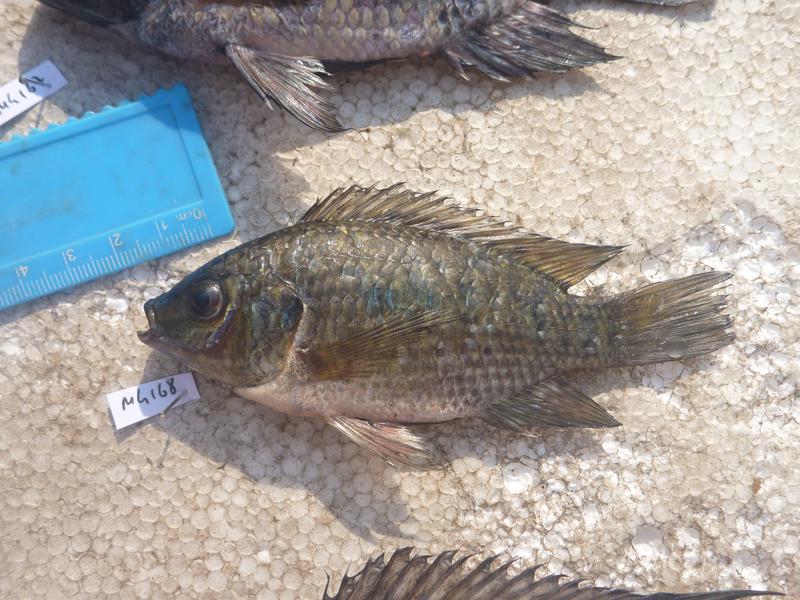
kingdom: Animalia
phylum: Chordata
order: Perciformes
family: Cichlidae
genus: Oreochromis
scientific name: Oreochromis leucostictus
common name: Blue spotted tilapia
